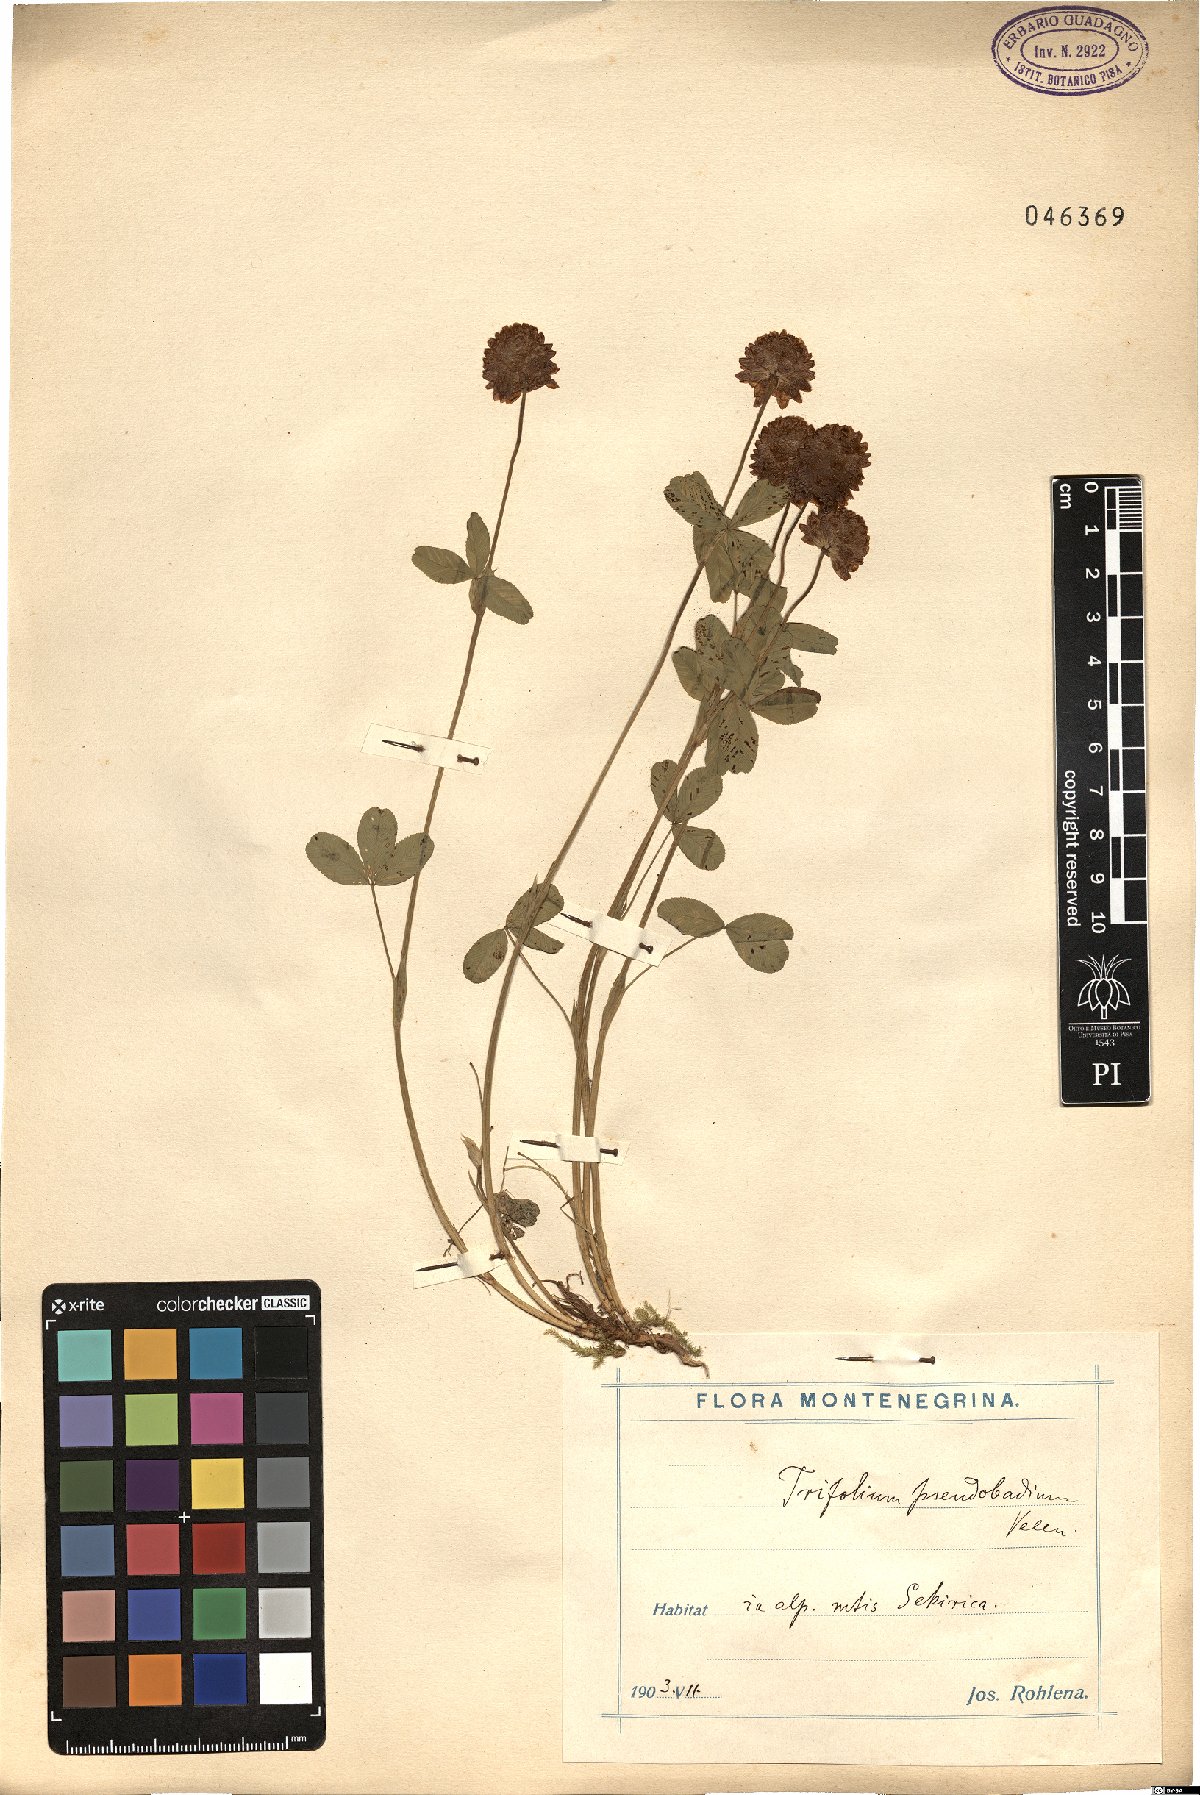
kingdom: Plantae
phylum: Tracheophyta
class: Magnoliopsida
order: Fabales
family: Fabaceae
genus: Trifolium
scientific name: Trifolium badium
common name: Brown clover
